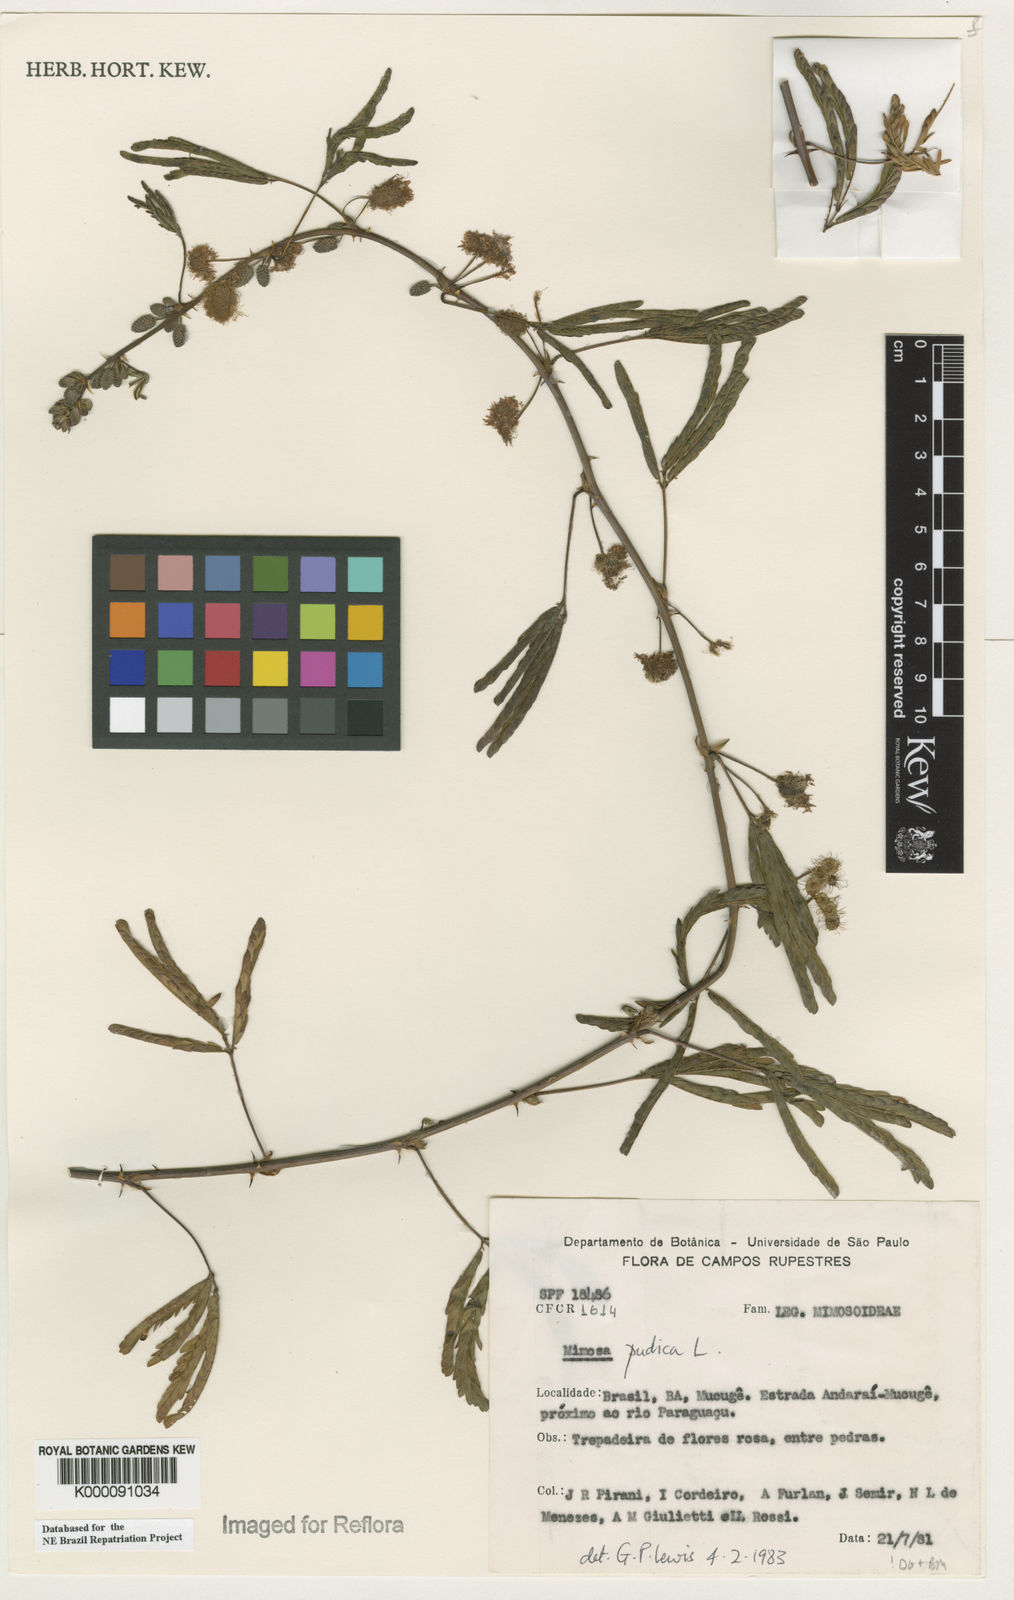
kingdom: Plantae
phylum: Tracheophyta
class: Magnoliopsida
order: Fabales
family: Fabaceae
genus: Mimosa
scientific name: Mimosa pudica
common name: Sensitive plant
